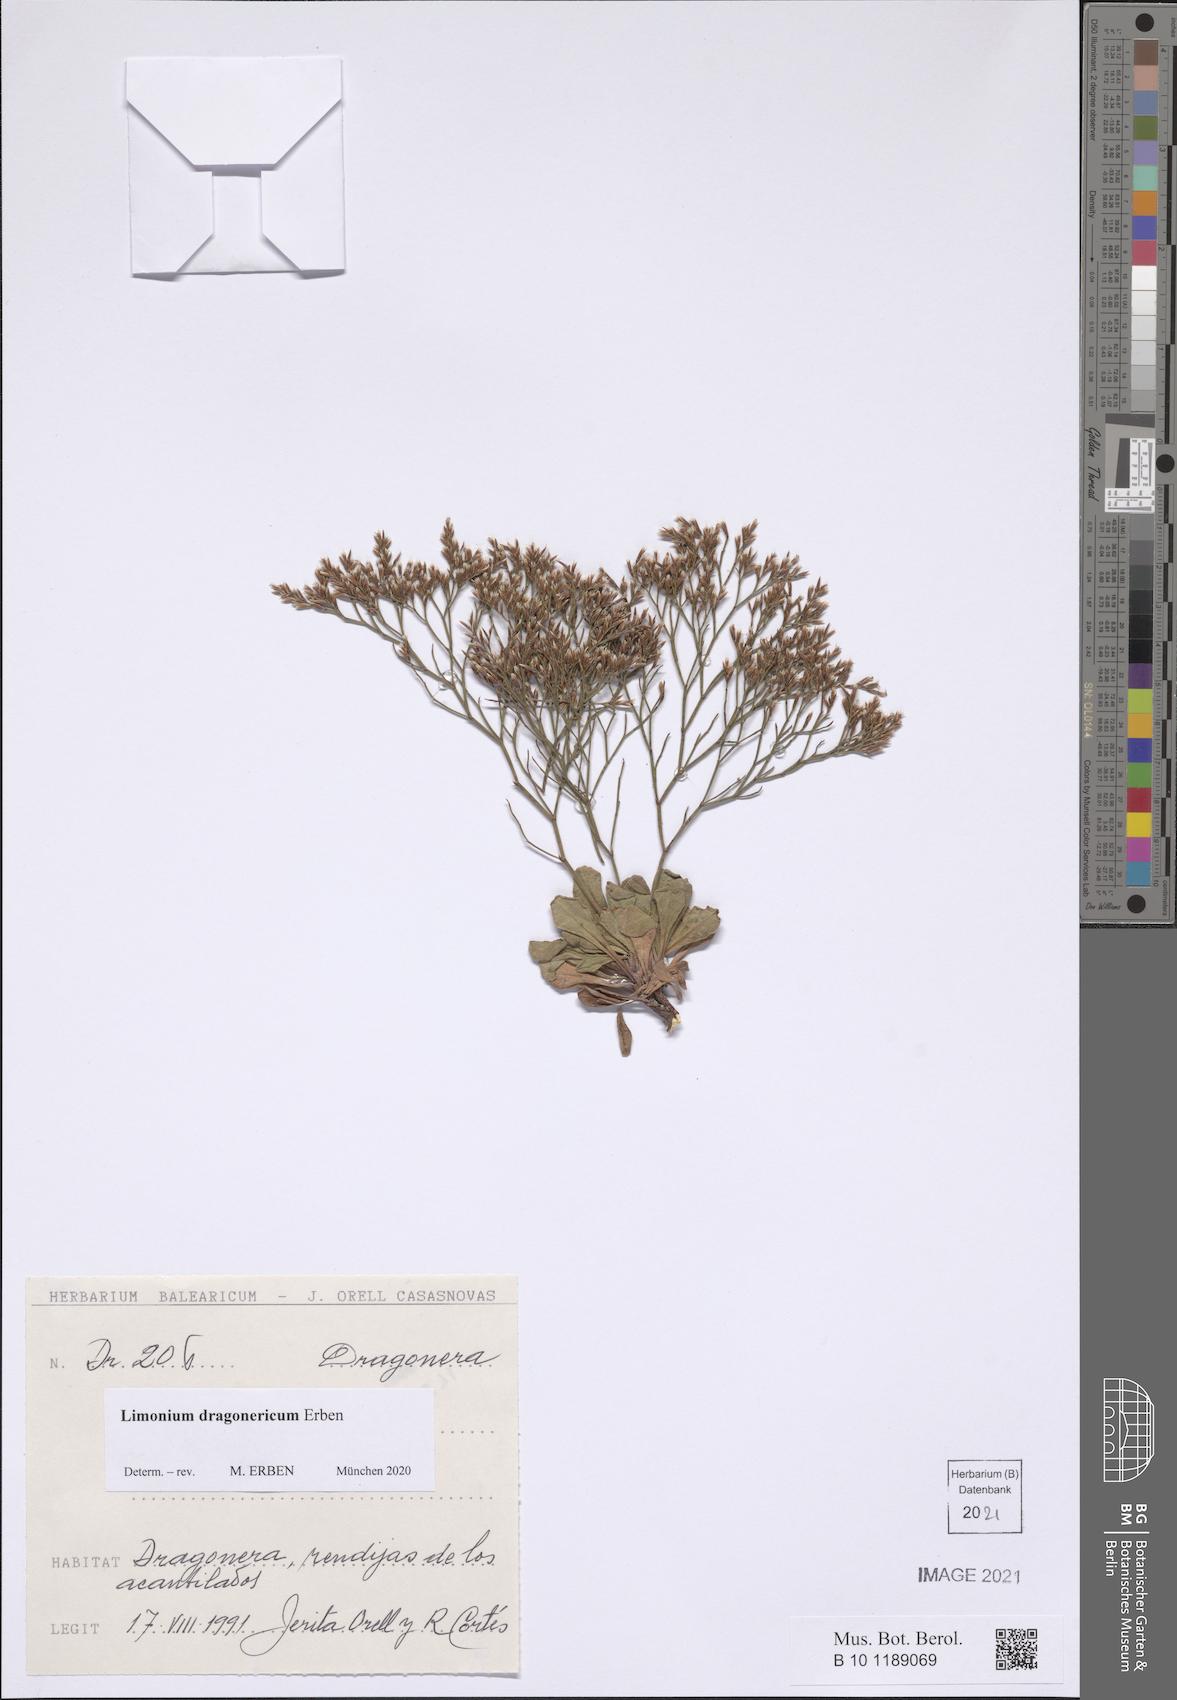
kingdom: Plantae
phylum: Tracheophyta
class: Magnoliopsida
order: Caryophyllales
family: Plumbaginaceae
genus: Limonium
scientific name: Limonium dragonericum
